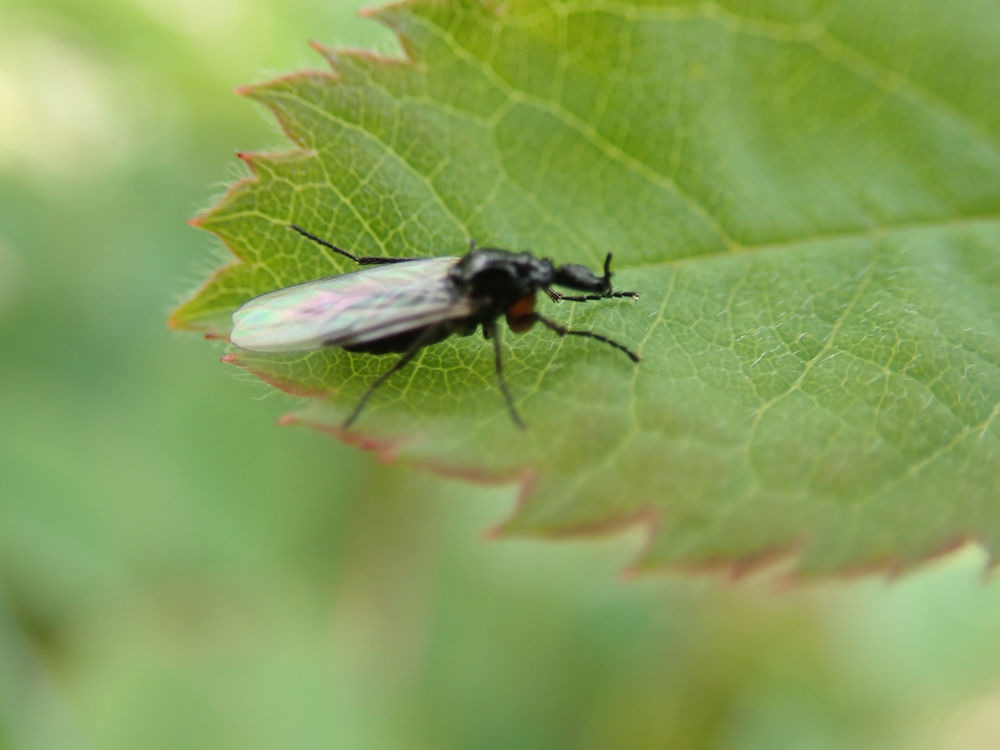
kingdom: Animalia
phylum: Arthropoda
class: Insecta
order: Diptera
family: Bibionidae
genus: Dilophus
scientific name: Dilophus femoratus
